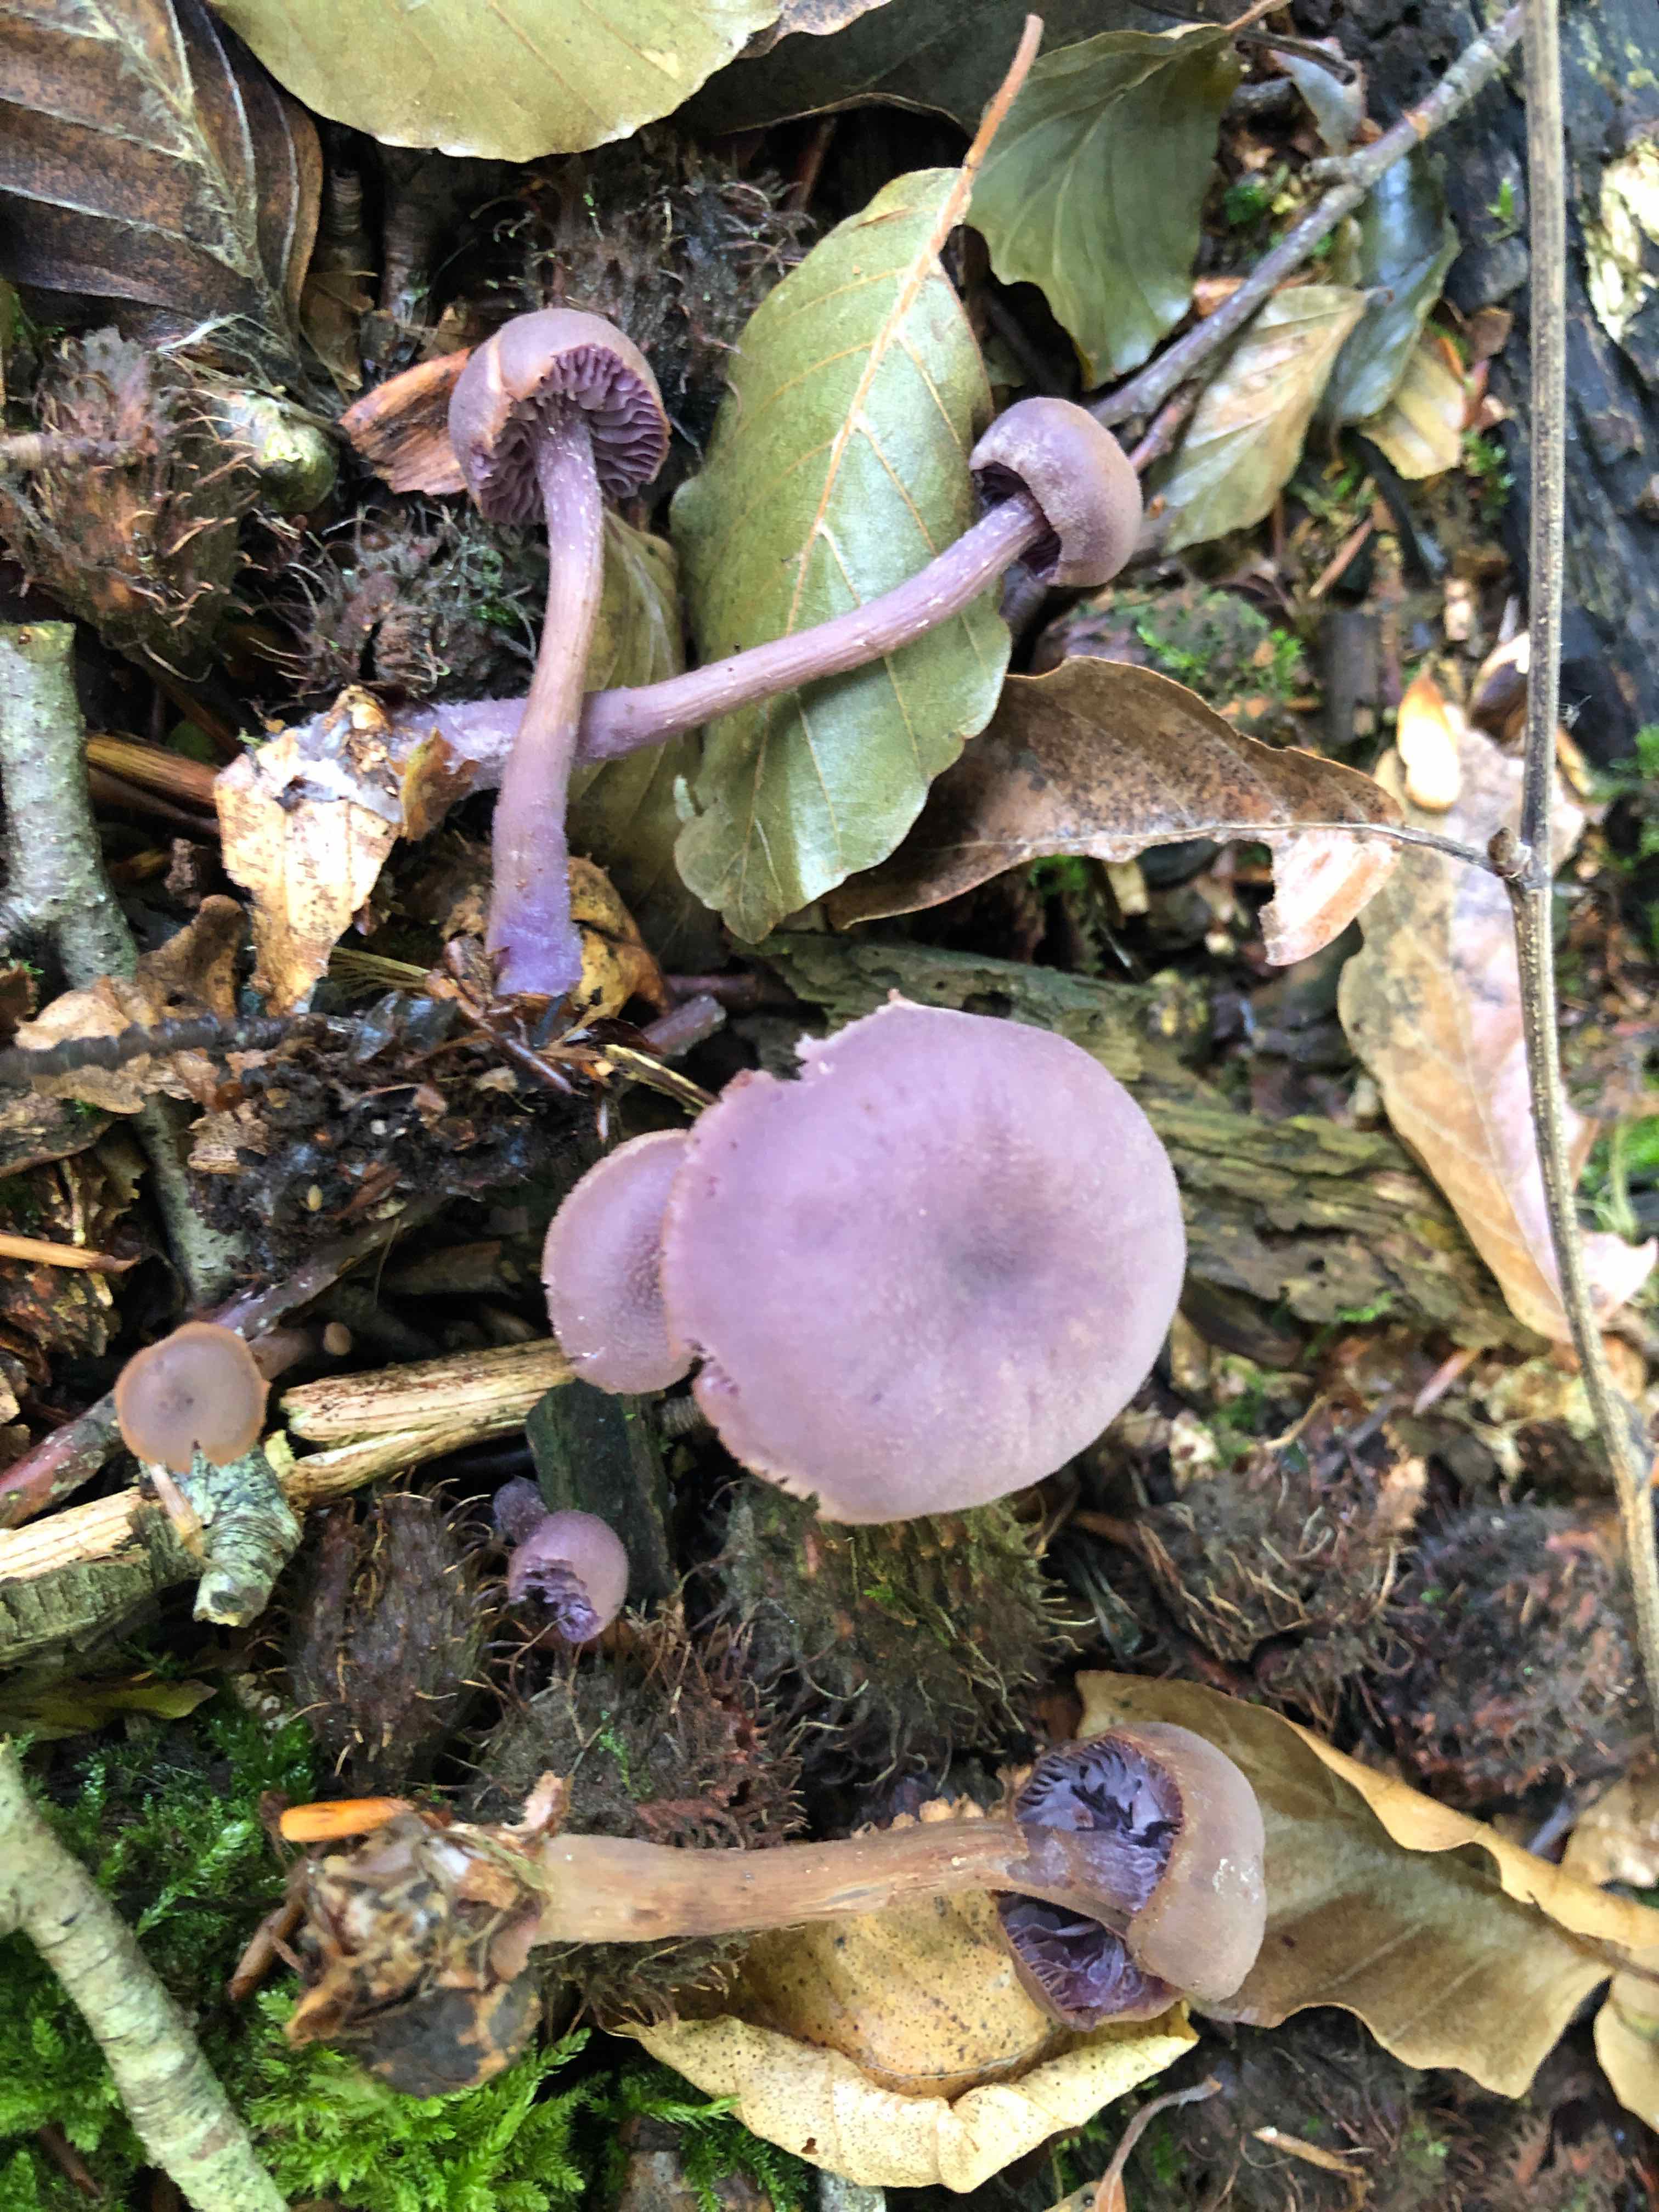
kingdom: Fungi
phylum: Basidiomycota
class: Agaricomycetes
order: Agaricales
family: Hydnangiaceae
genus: Laccaria
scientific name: Laccaria amethystina
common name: violet ametysthat
